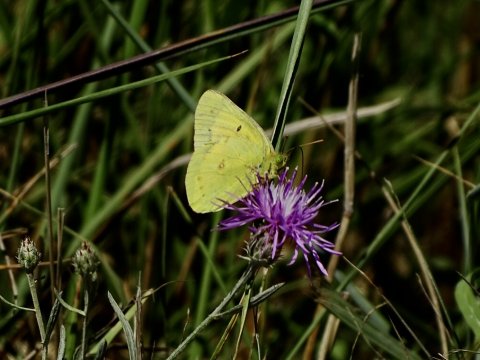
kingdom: Animalia
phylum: Arthropoda
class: Insecta
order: Lepidoptera
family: Pieridae
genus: Colias
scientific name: Colias eurytheme
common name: Orange Sulphur
